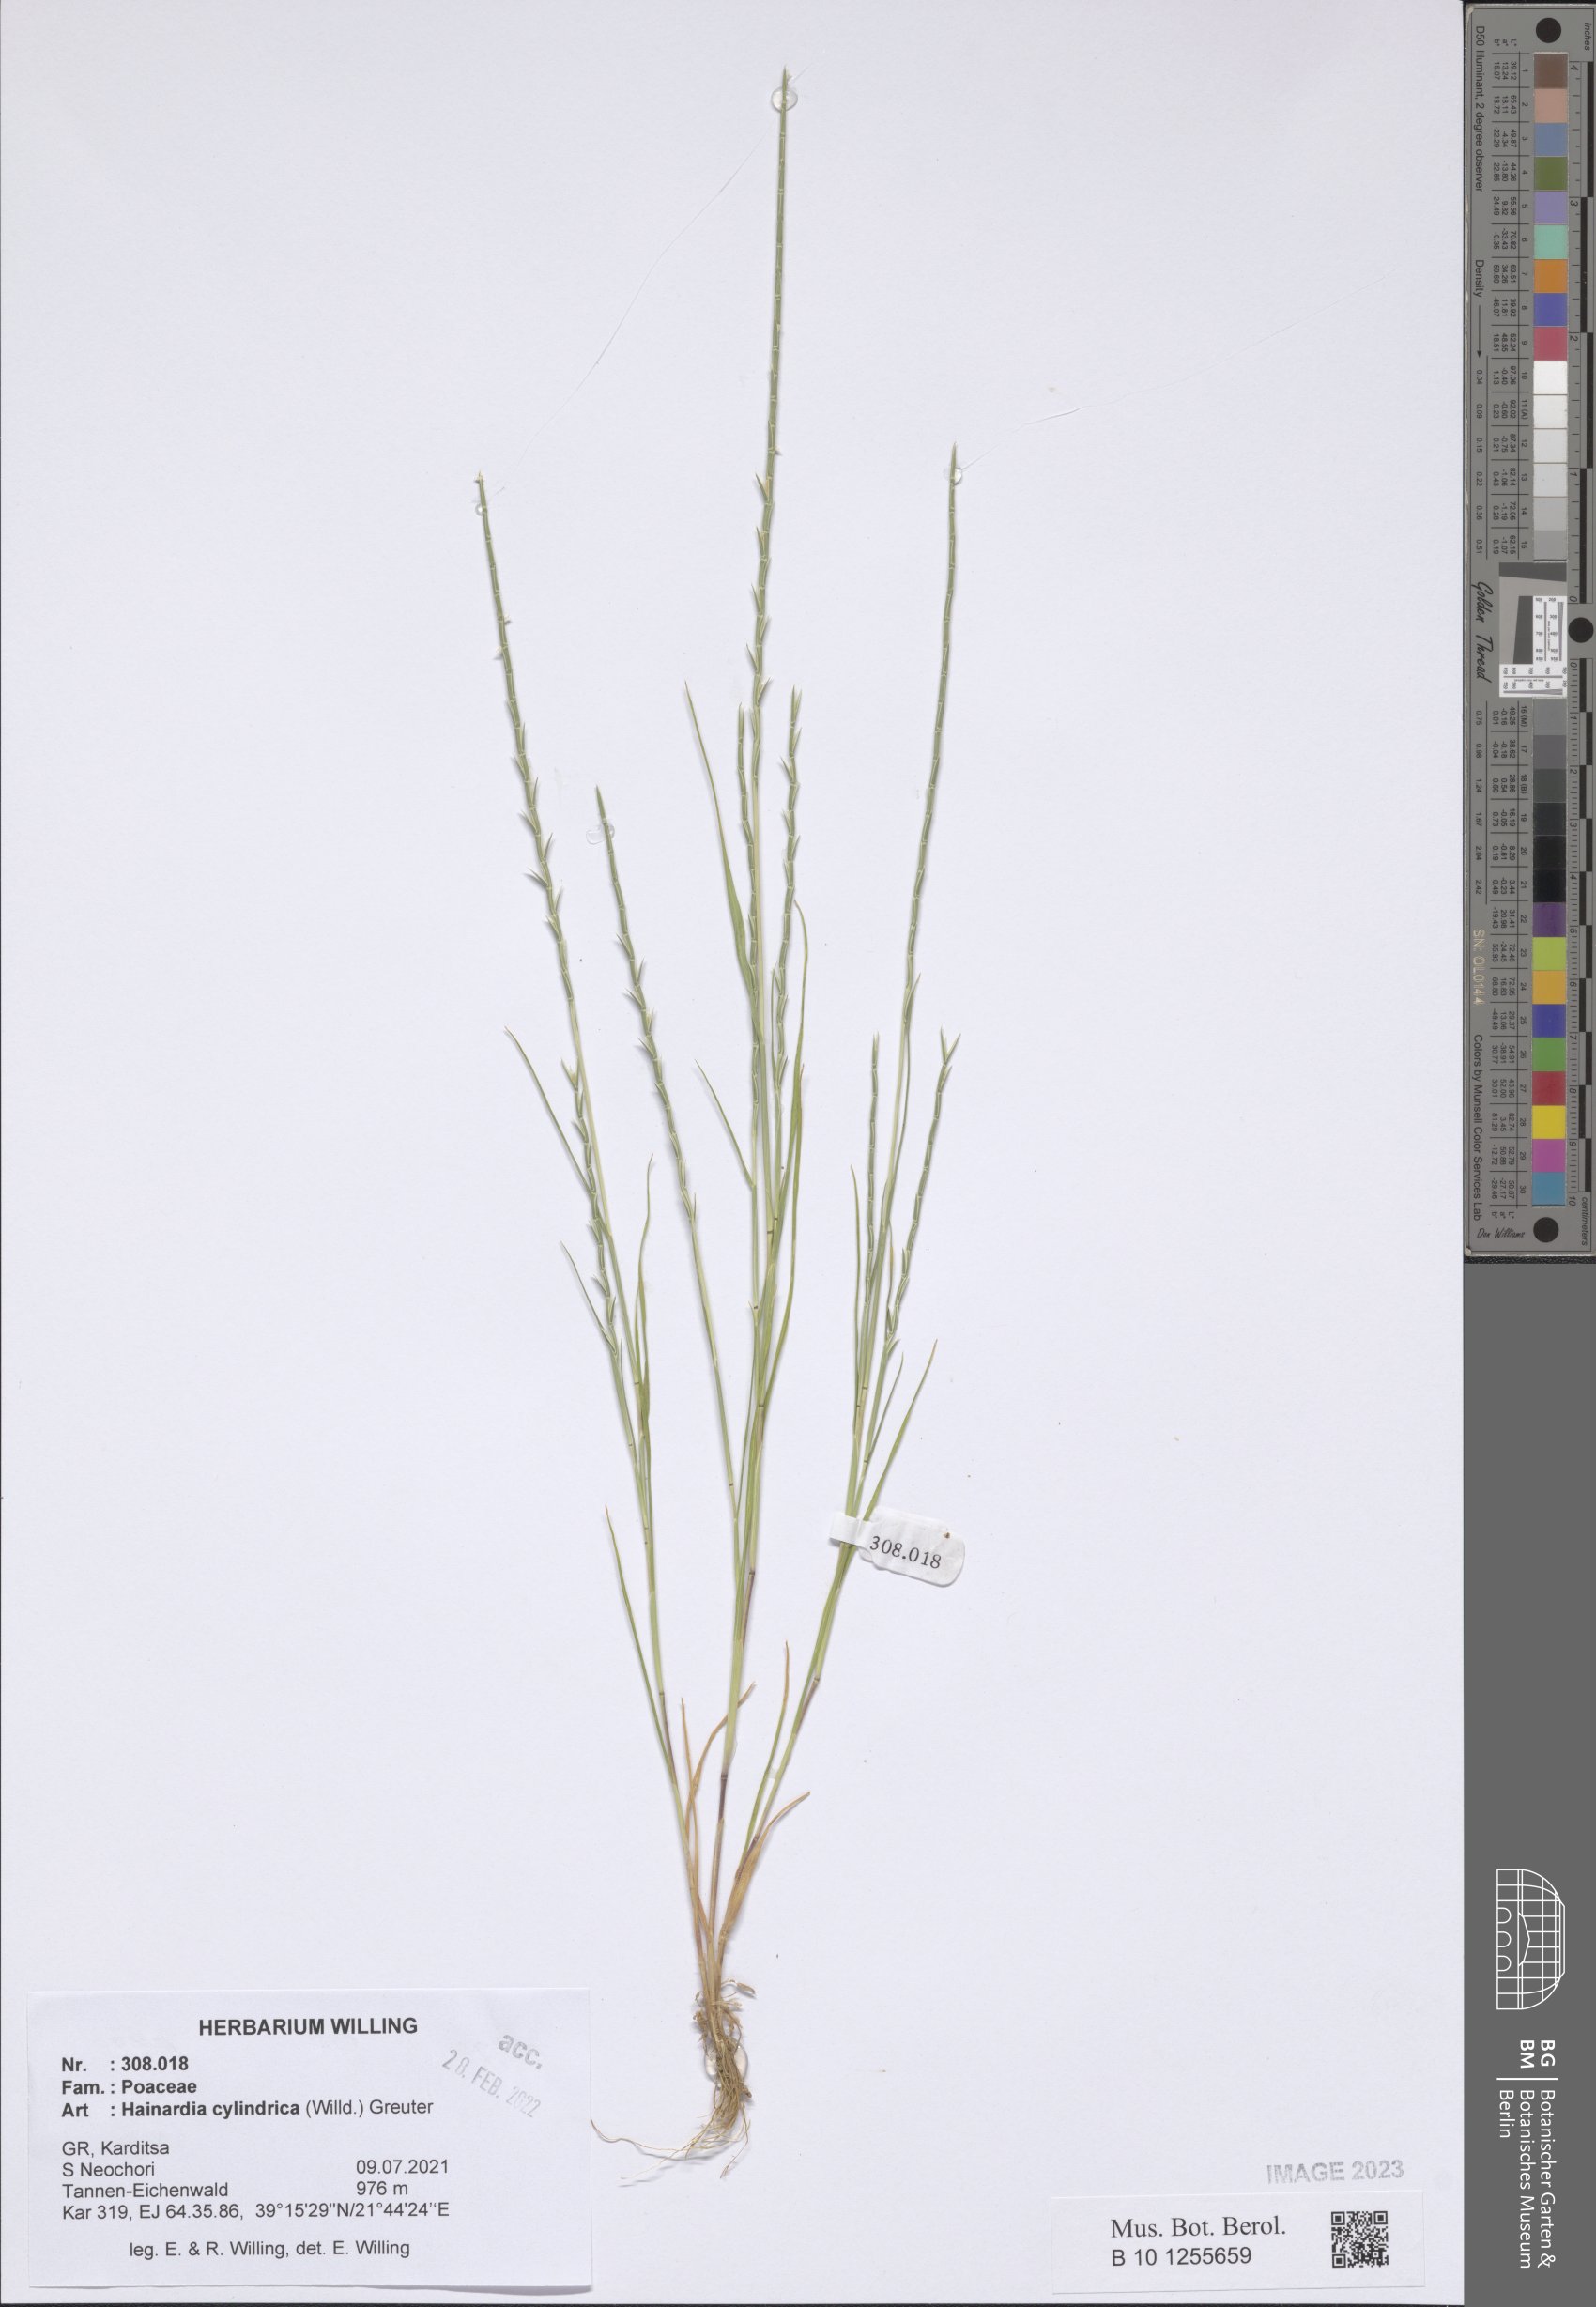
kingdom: Plantae
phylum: Tracheophyta
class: Liliopsida
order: Poales
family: Poaceae
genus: Parapholis
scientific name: Parapholis cylindrica
